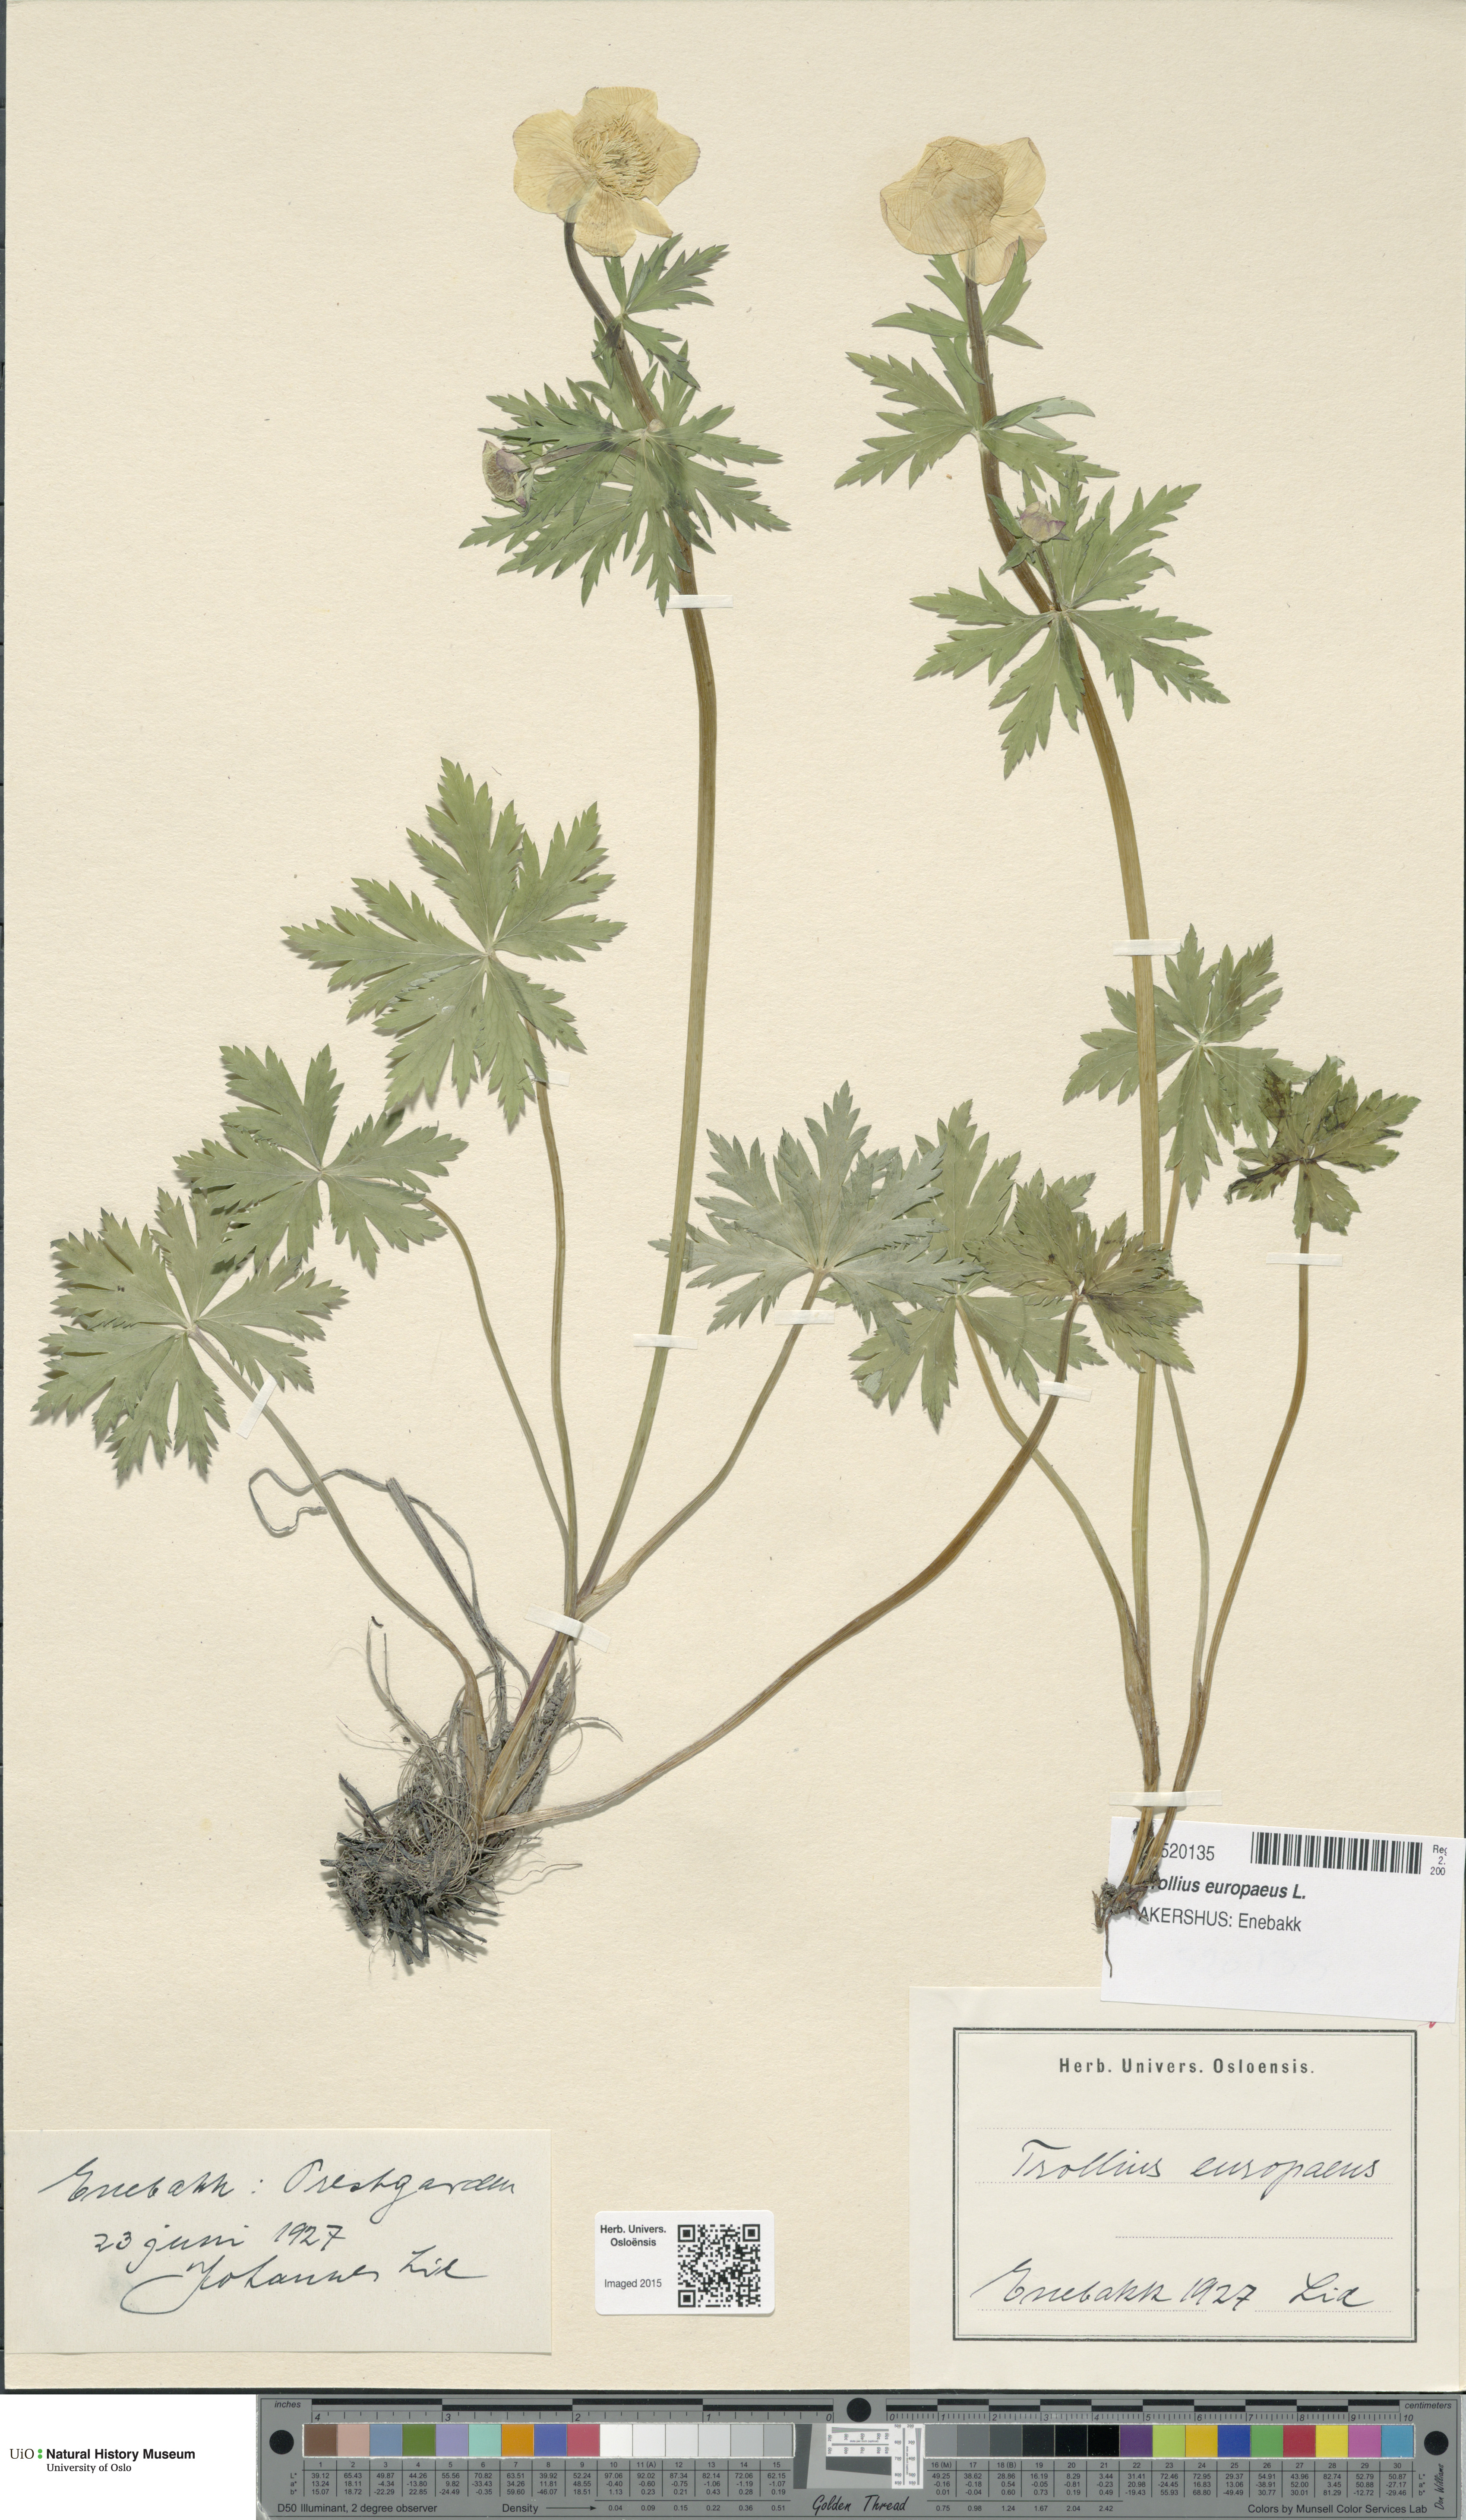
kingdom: Plantae
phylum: Tracheophyta
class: Magnoliopsida
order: Ranunculales
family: Ranunculaceae
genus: Trollius
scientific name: Trollius europaeus
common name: European globeflower
